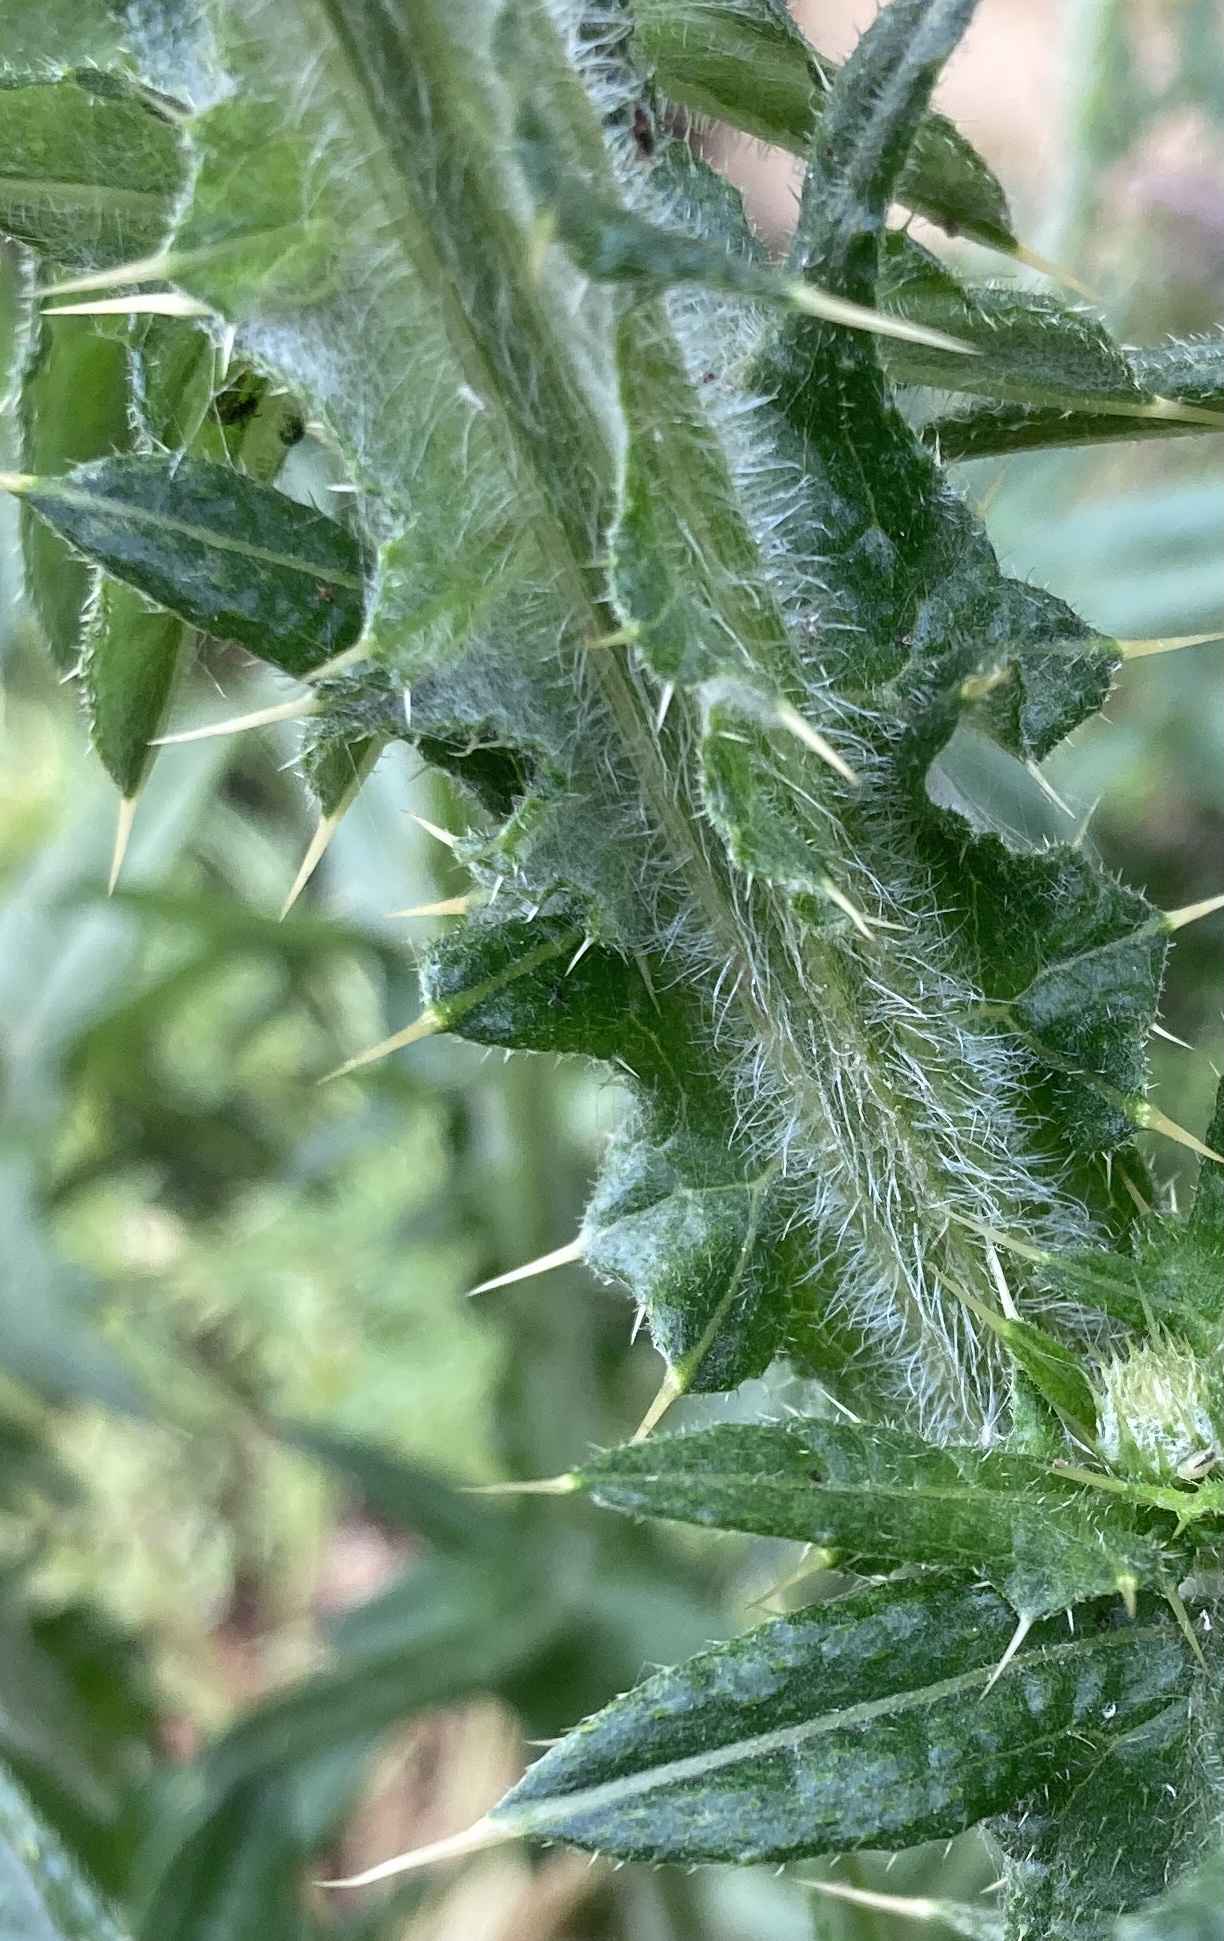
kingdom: Plantae
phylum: Tracheophyta
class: Magnoliopsida
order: Asterales
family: Asteraceae
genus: Cirsium
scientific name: Cirsium vulgare
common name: Horse-tidsel
